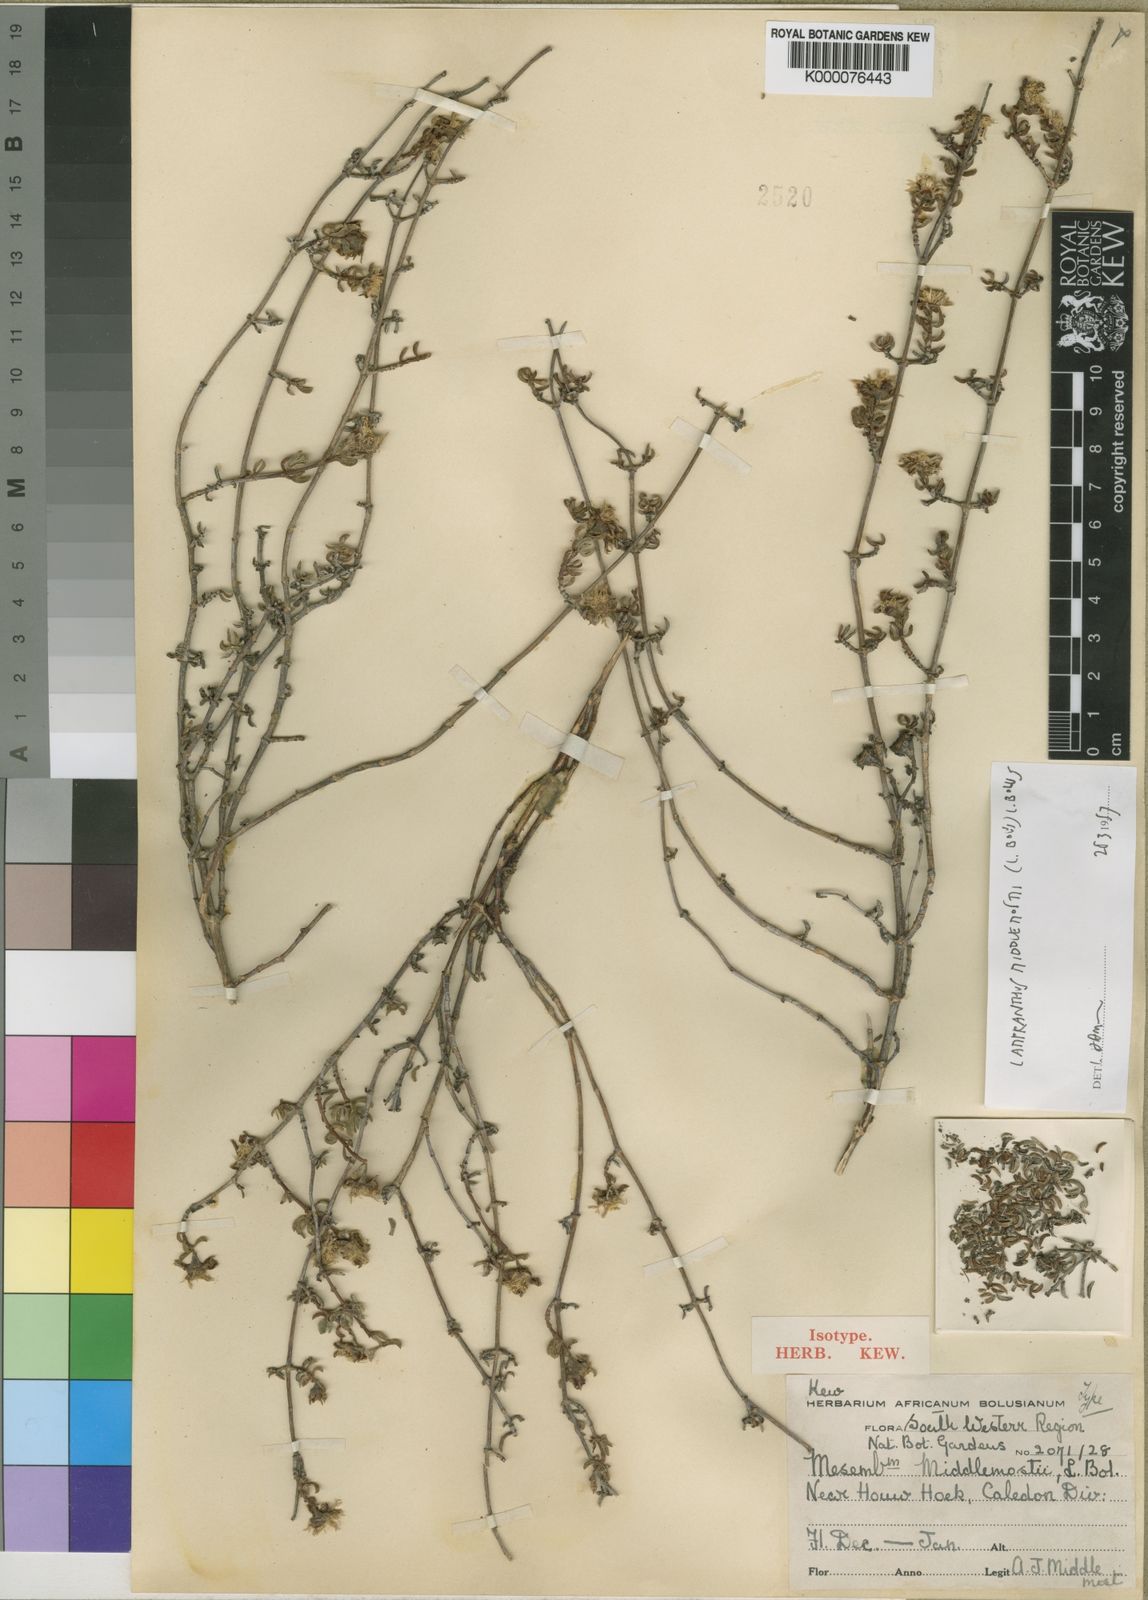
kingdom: Plantae
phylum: Tracheophyta
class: Magnoliopsida
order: Caryophyllales
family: Aizoaceae
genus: Lampranthus
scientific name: Lampranthus middlemostii
